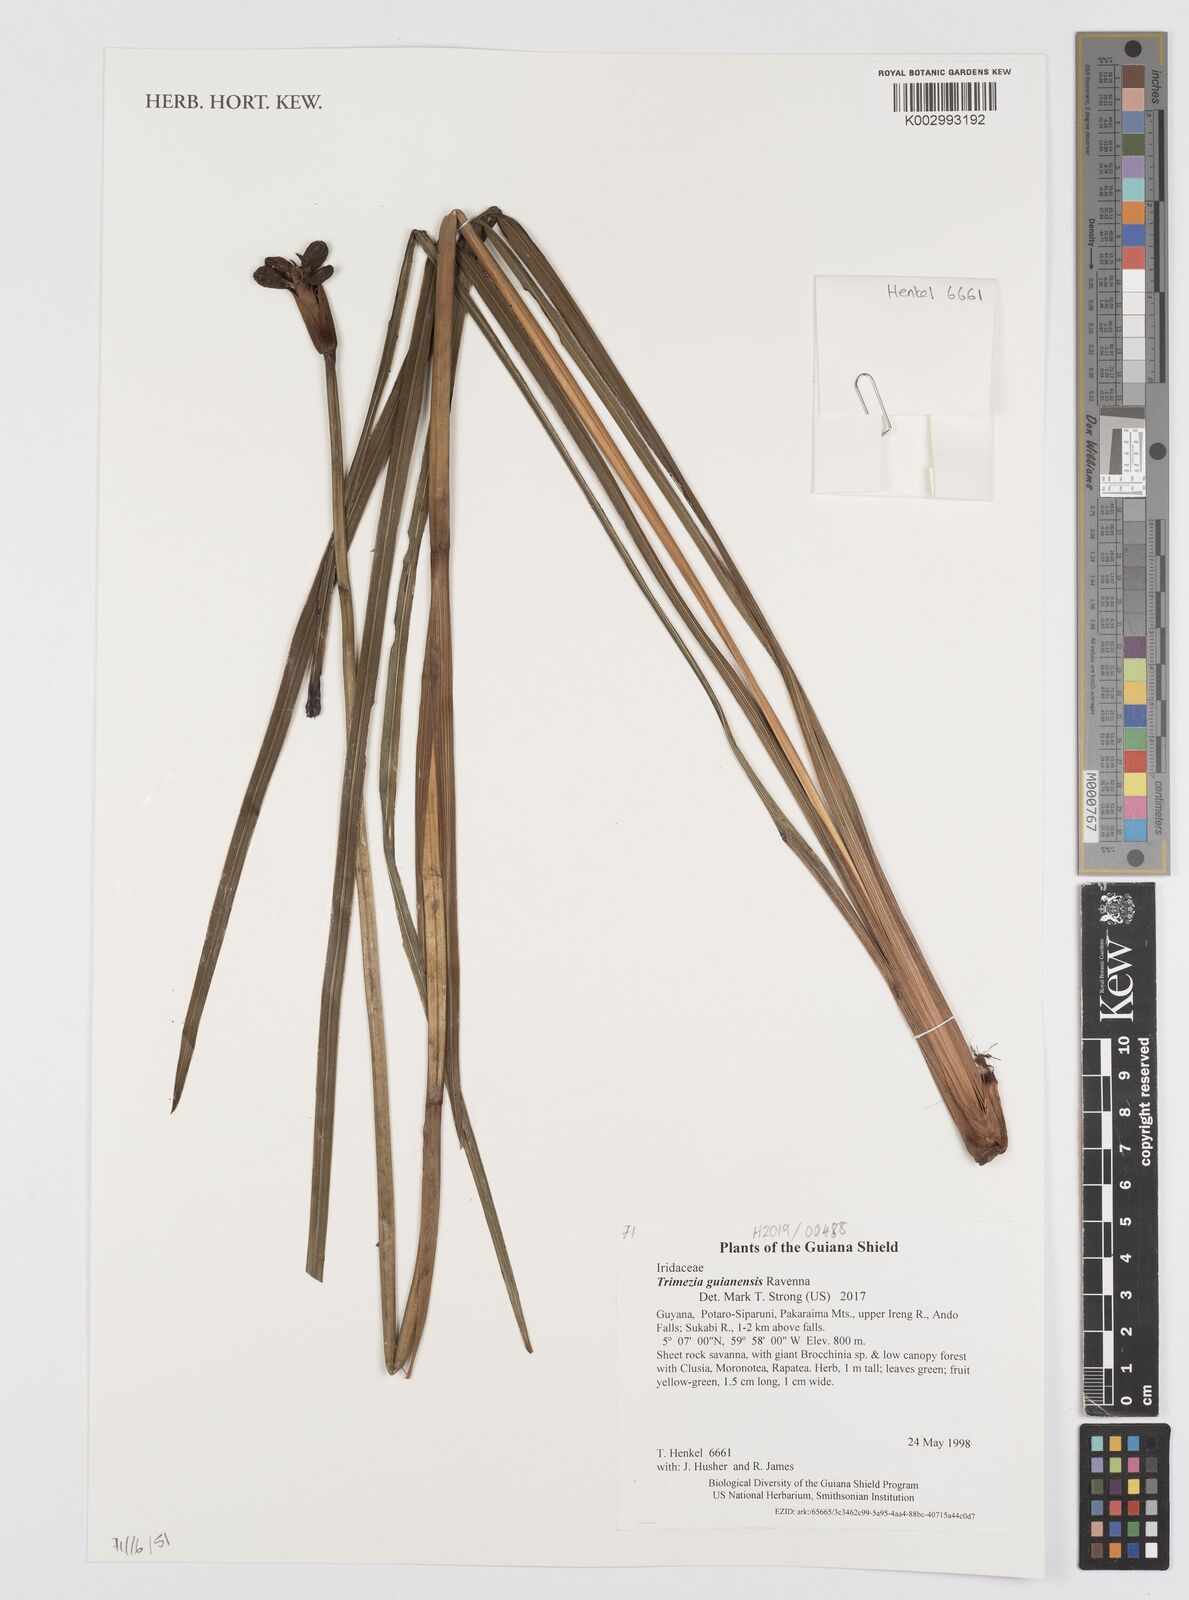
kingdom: Plantae
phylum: Tracheophyta
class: Liliopsida
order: Asparagales
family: Iridaceae
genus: Trimezia
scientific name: Trimezia guianensis
